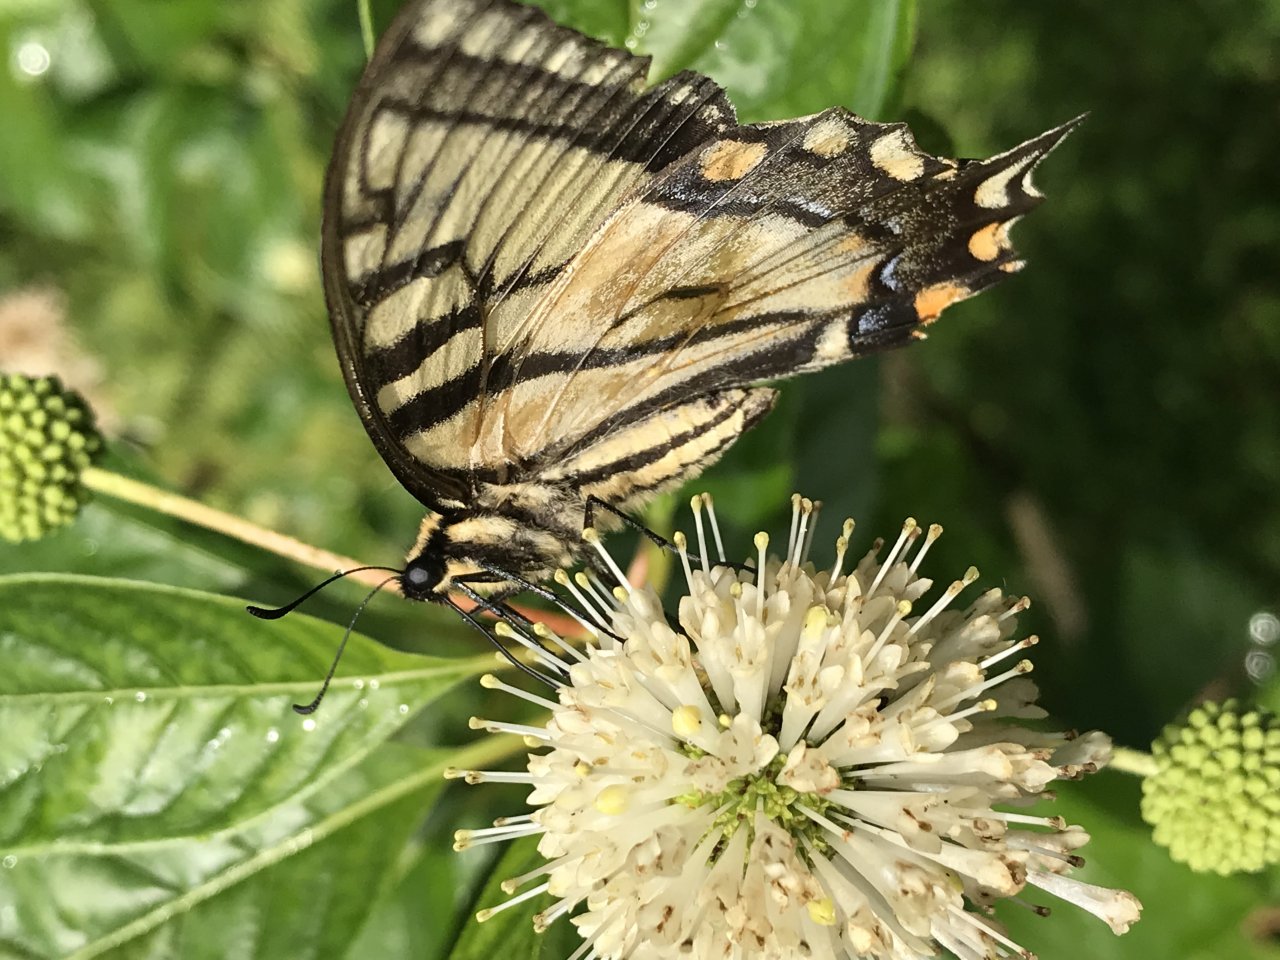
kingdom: Animalia
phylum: Arthropoda
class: Insecta
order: Lepidoptera
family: Papilionidae
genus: Pterourus
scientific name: Pterourus
